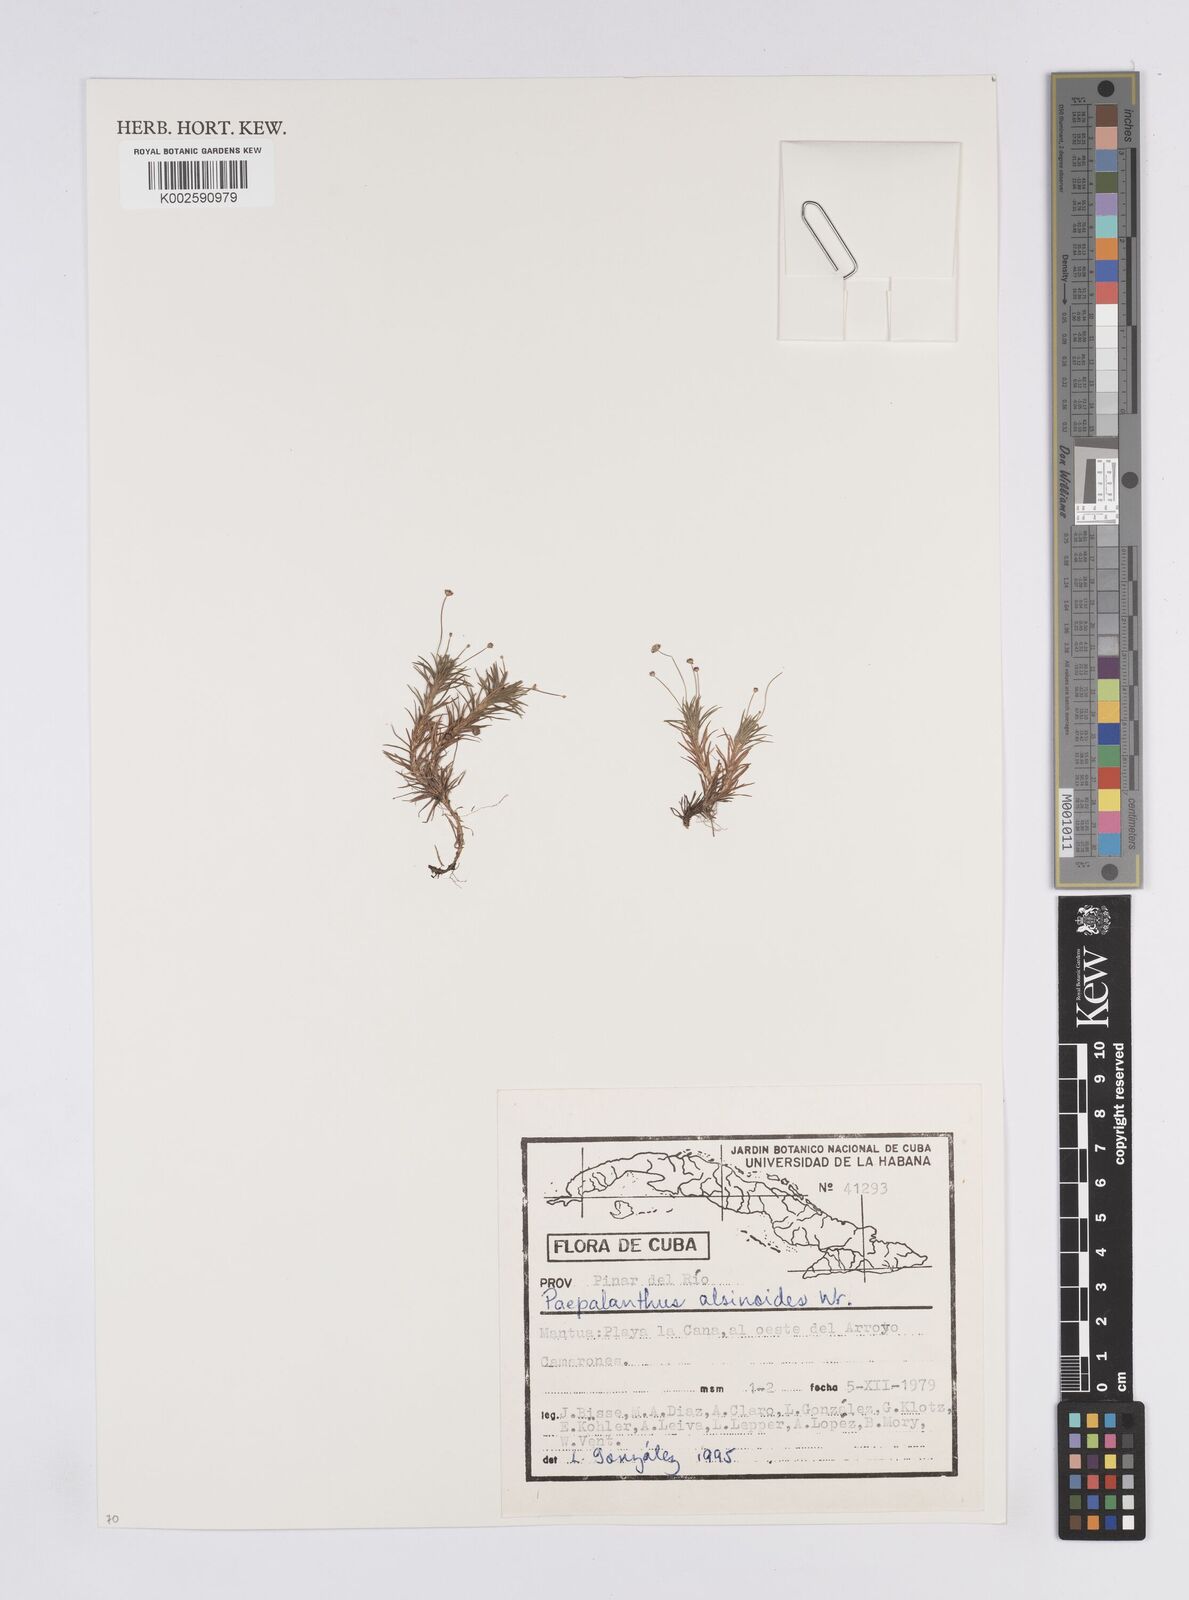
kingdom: Plantae
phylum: Tracheophyta
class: Liliopsida
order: Poales
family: Eriocaulaceae
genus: Paepalanthus
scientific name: Paepalanthus alsinoides
